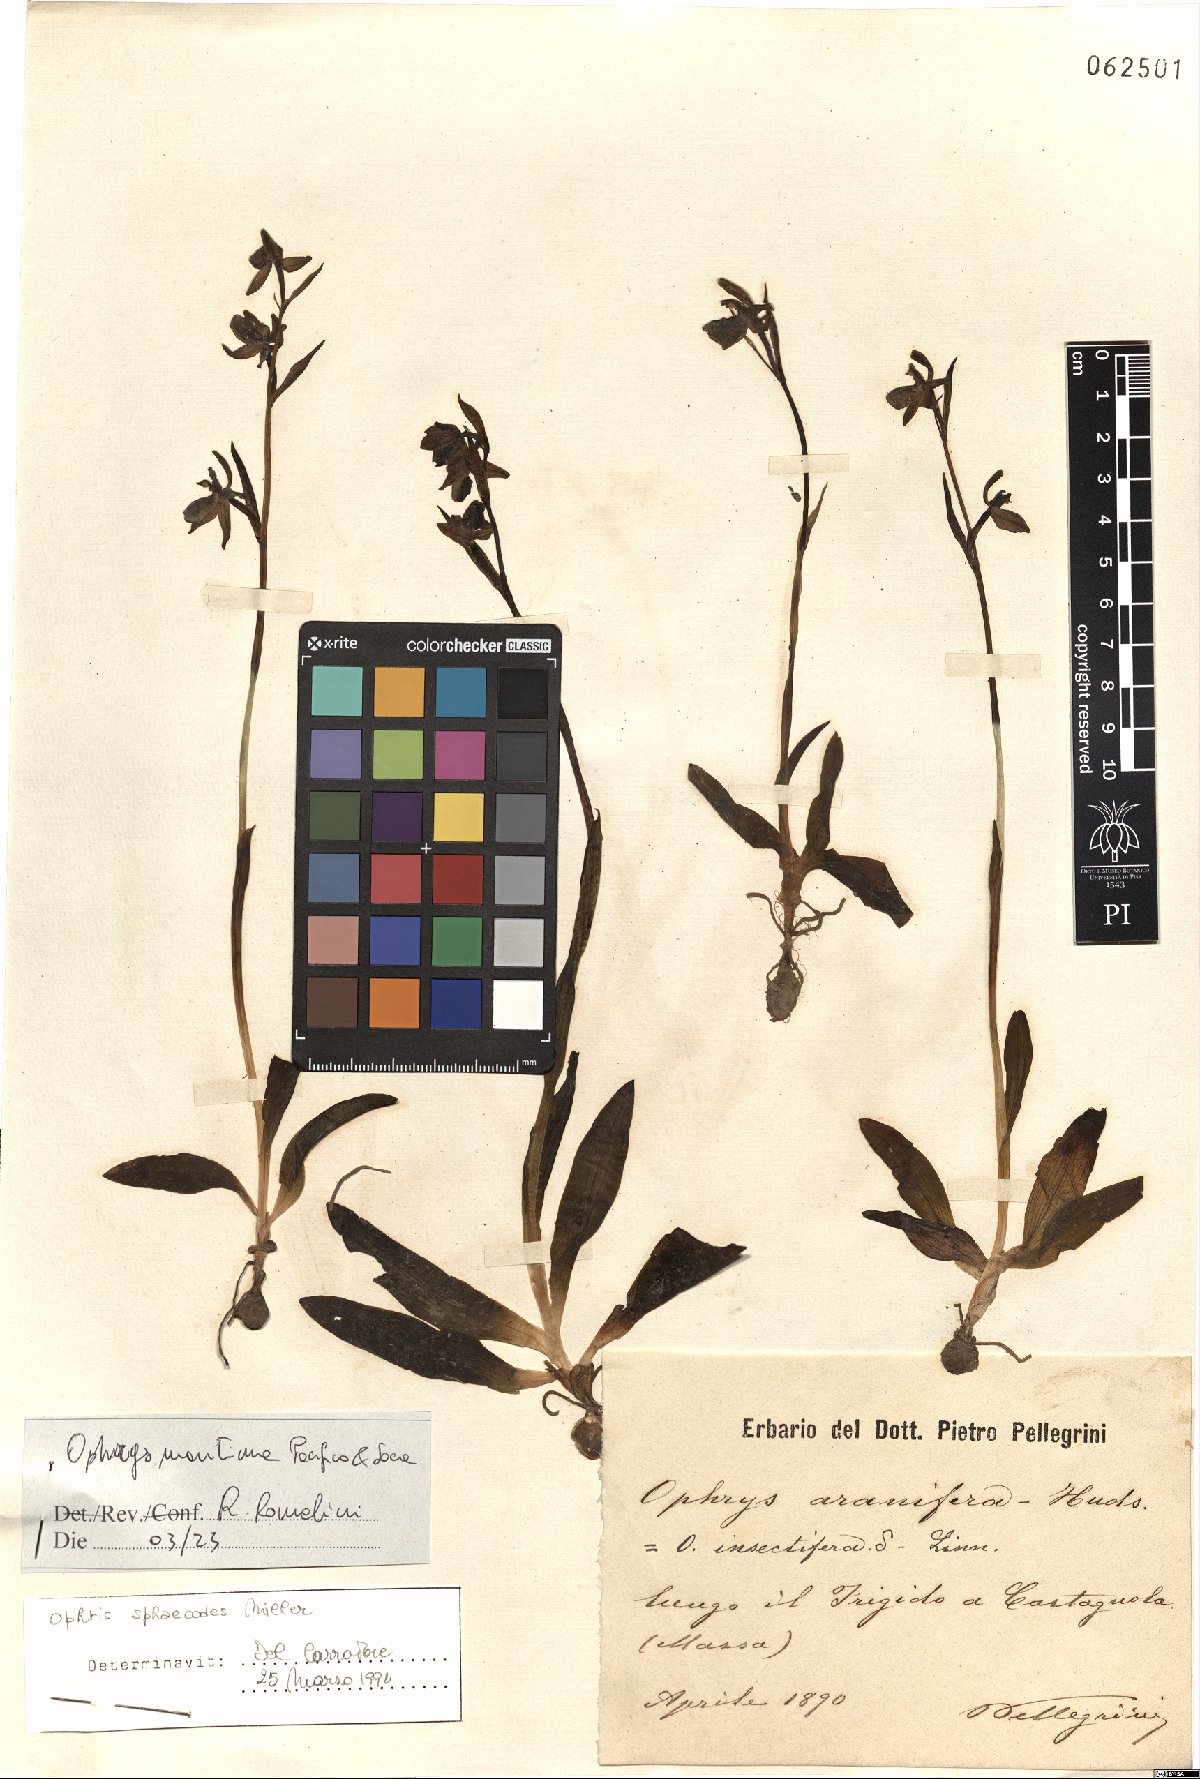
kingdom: Plantae
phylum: Tracheophyta
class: Liliopsida
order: Asparagales
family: Orchidaceae
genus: Ophrys
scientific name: Ophrys sphegodes
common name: Early spider-orchid
